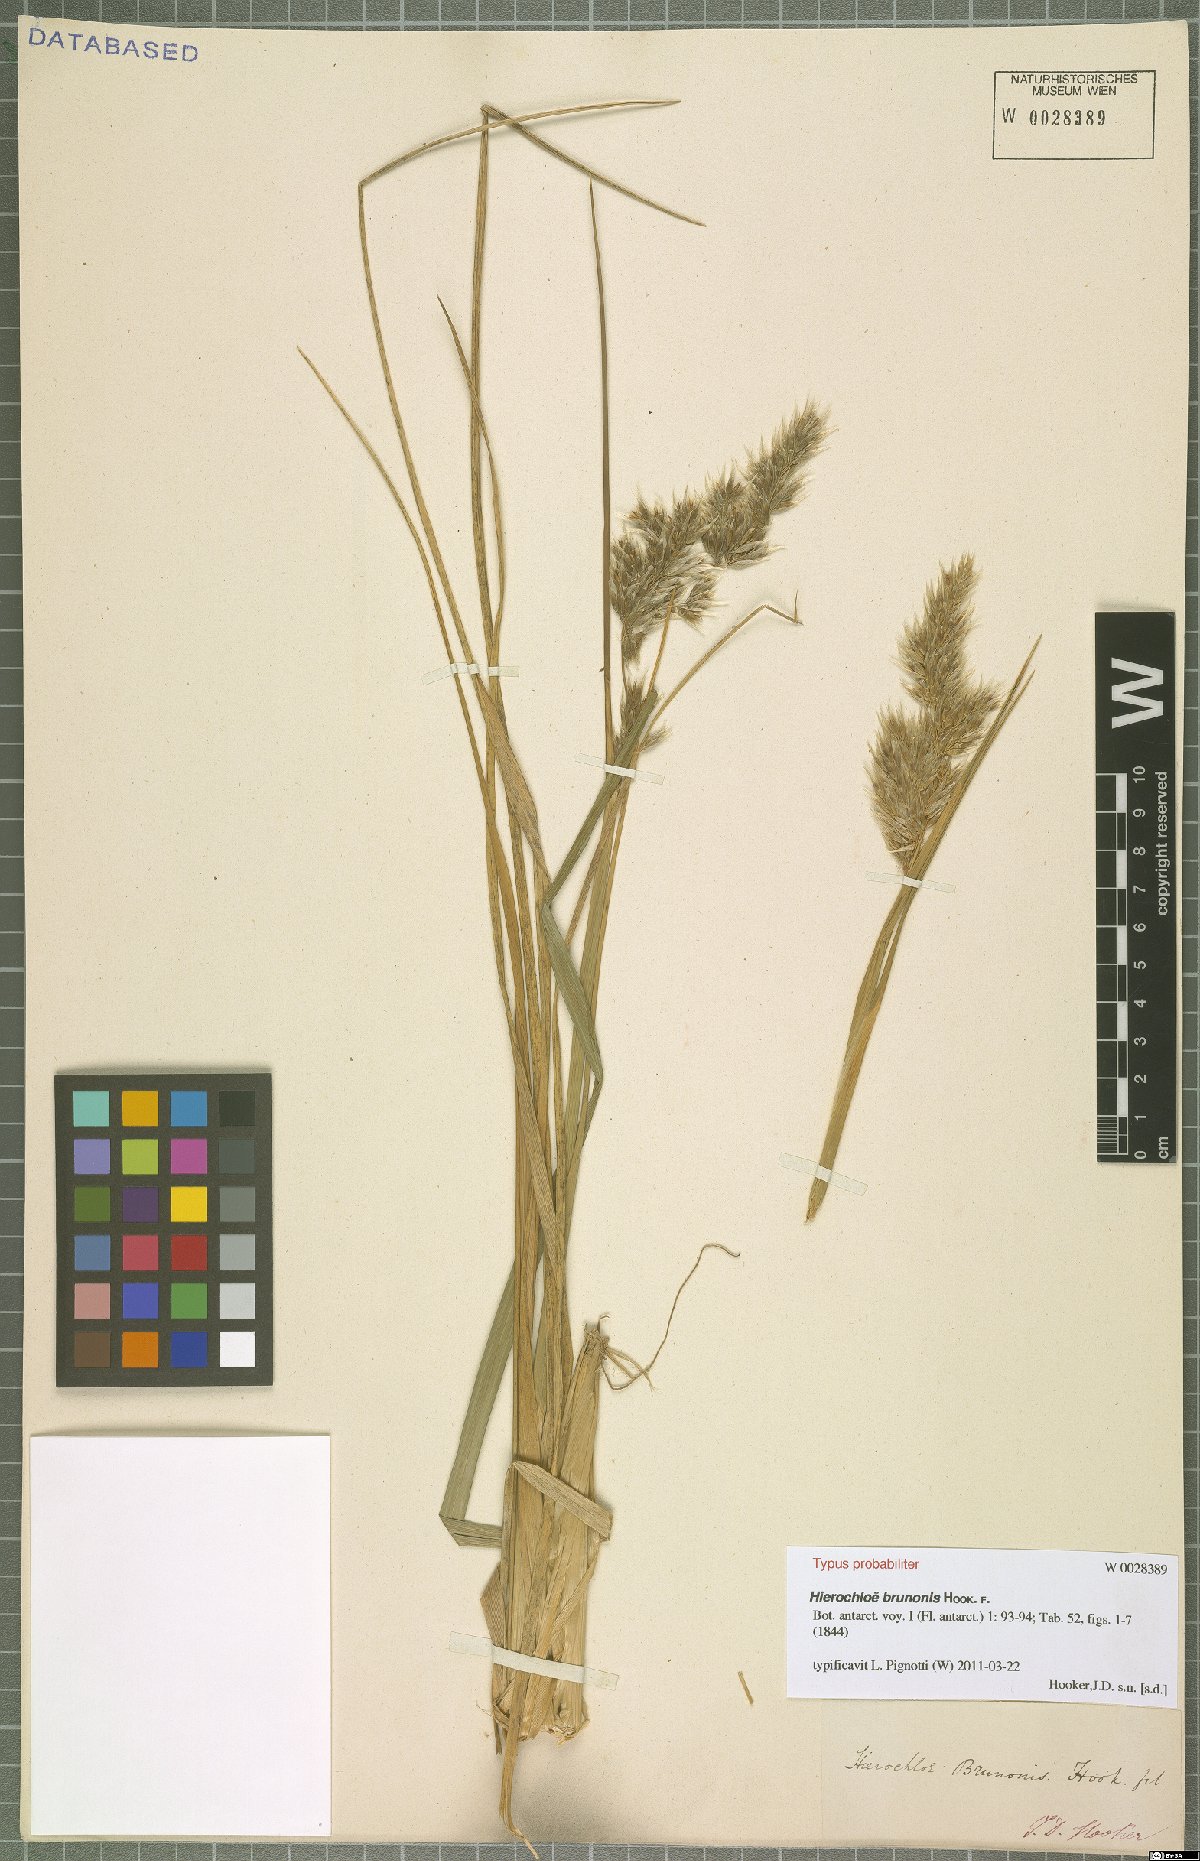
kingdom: Plantae
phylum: Tracheophyta
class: Liliopsida
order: Poales
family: Poaceae
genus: Anthoxanthum
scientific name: Anthoxanthum brunonis
